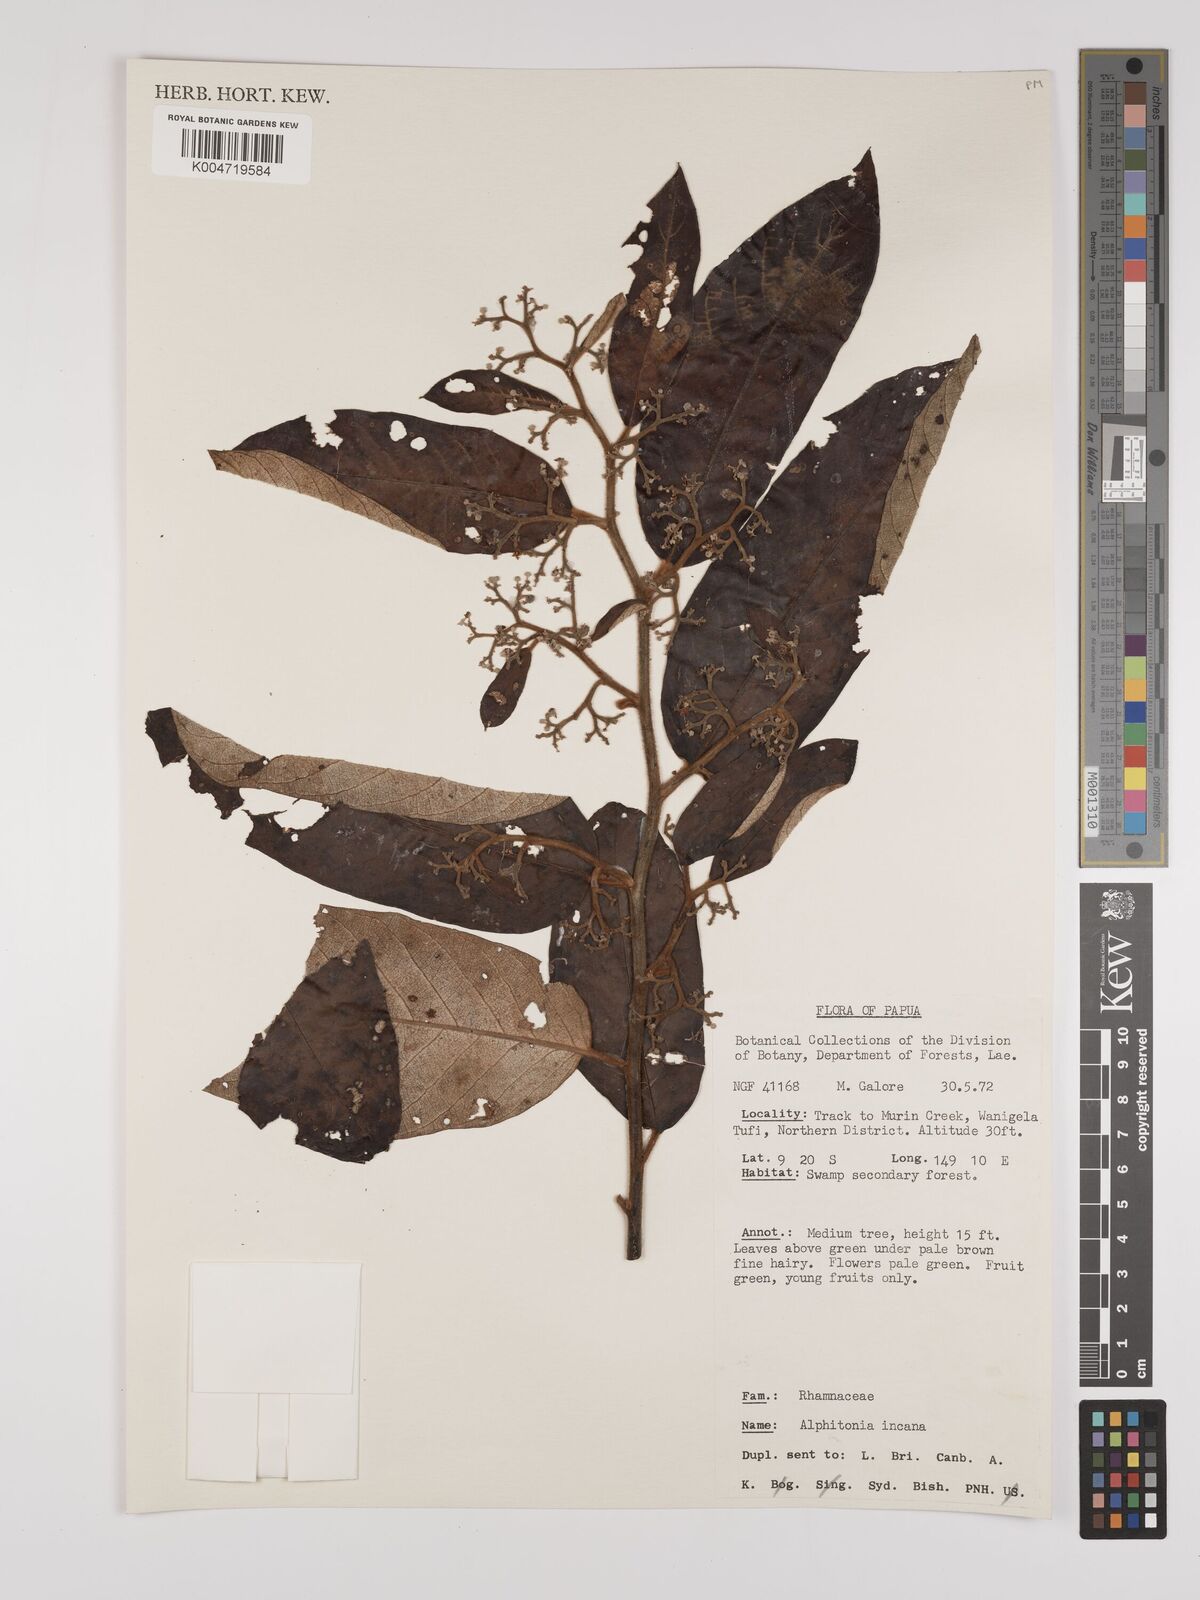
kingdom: Plantae
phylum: Tracheophyta
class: Magnoliopsida
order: Rosales
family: Rhamnaceae
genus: Alphitonia
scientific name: Alphitonia incana
